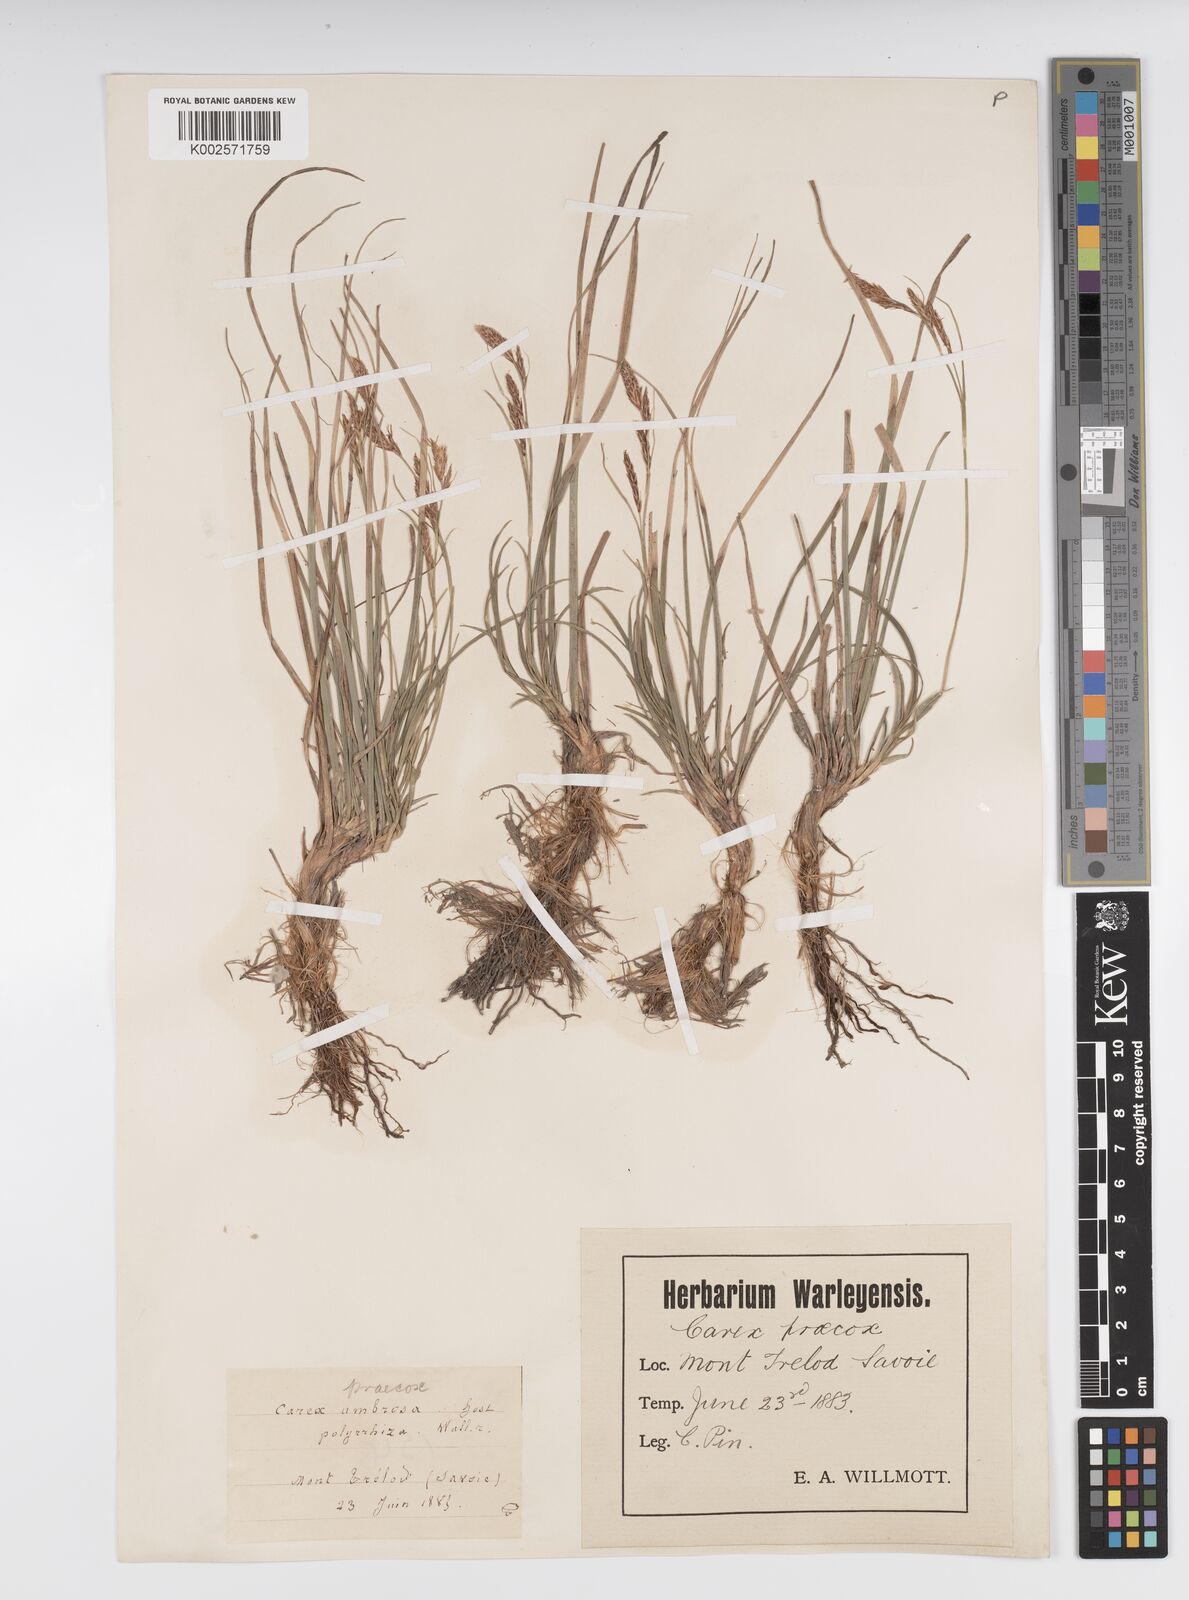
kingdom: Plantae
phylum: Tracheophyta
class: Liliopsida
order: Poales
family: Cyperaceae
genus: Carex
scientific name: Carex caryophyllea
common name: Spring sedge
